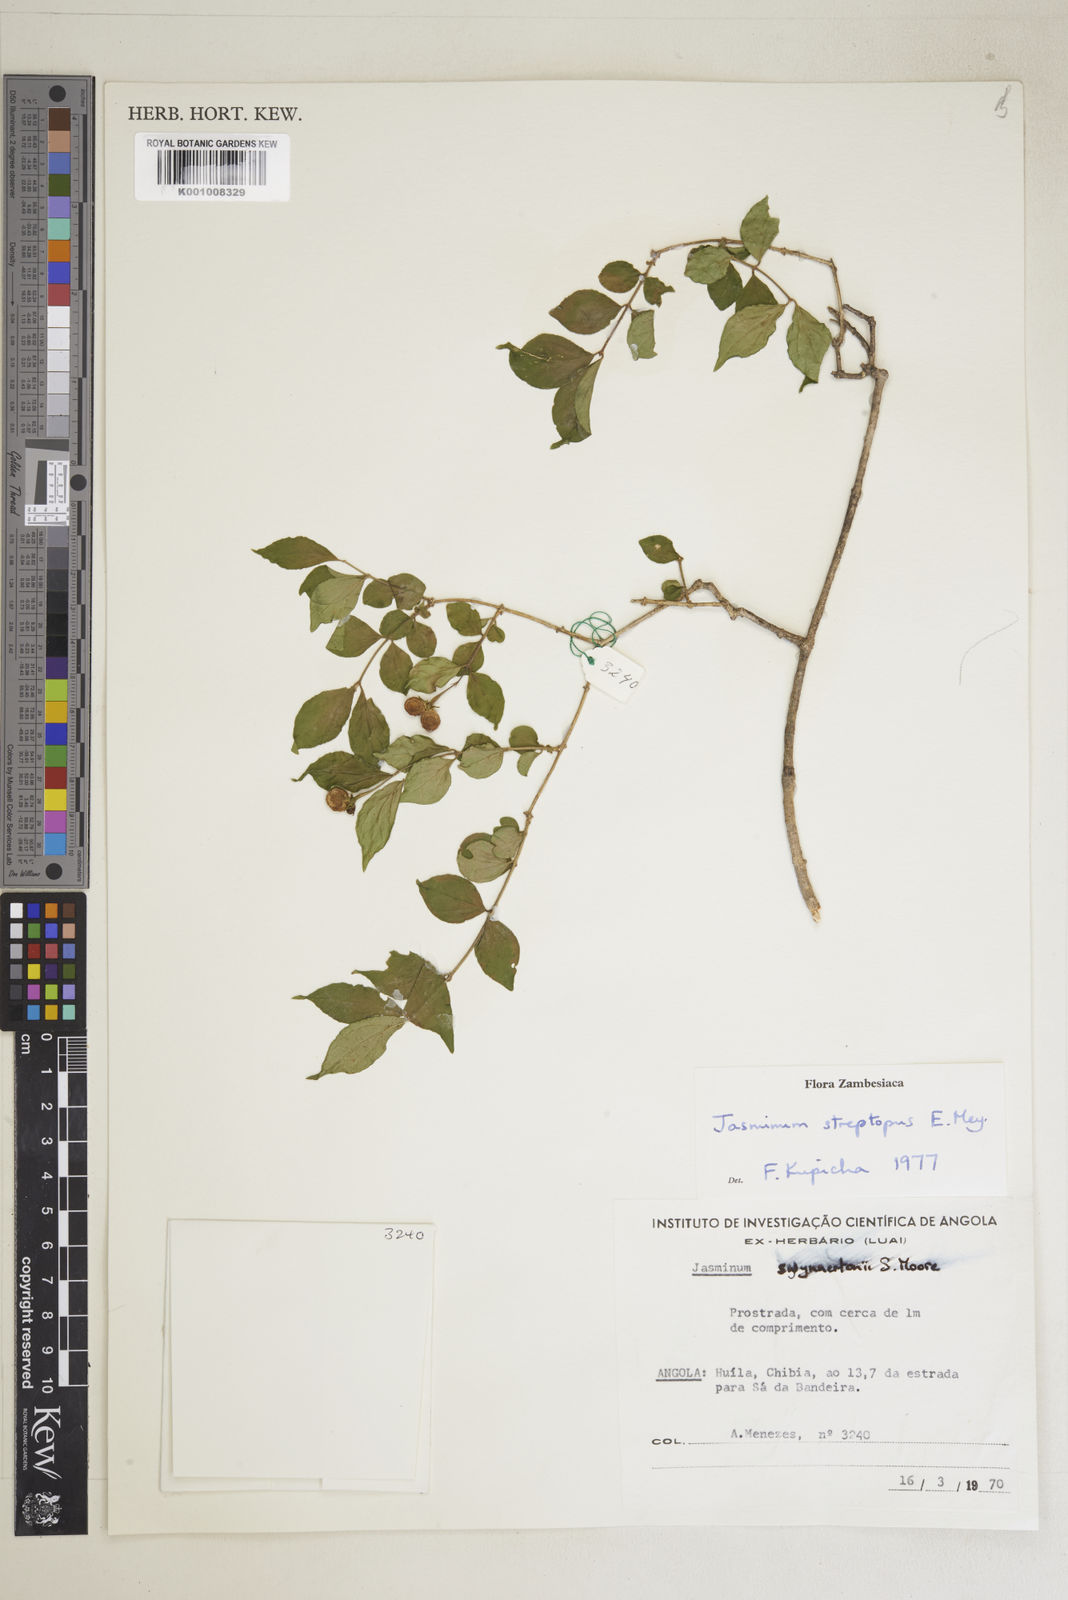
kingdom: Plantae
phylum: Tracheophyta
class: Magnoliopsida
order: Lamiales
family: Oleaceae
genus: Jasminum
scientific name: Jasminum streptopus
